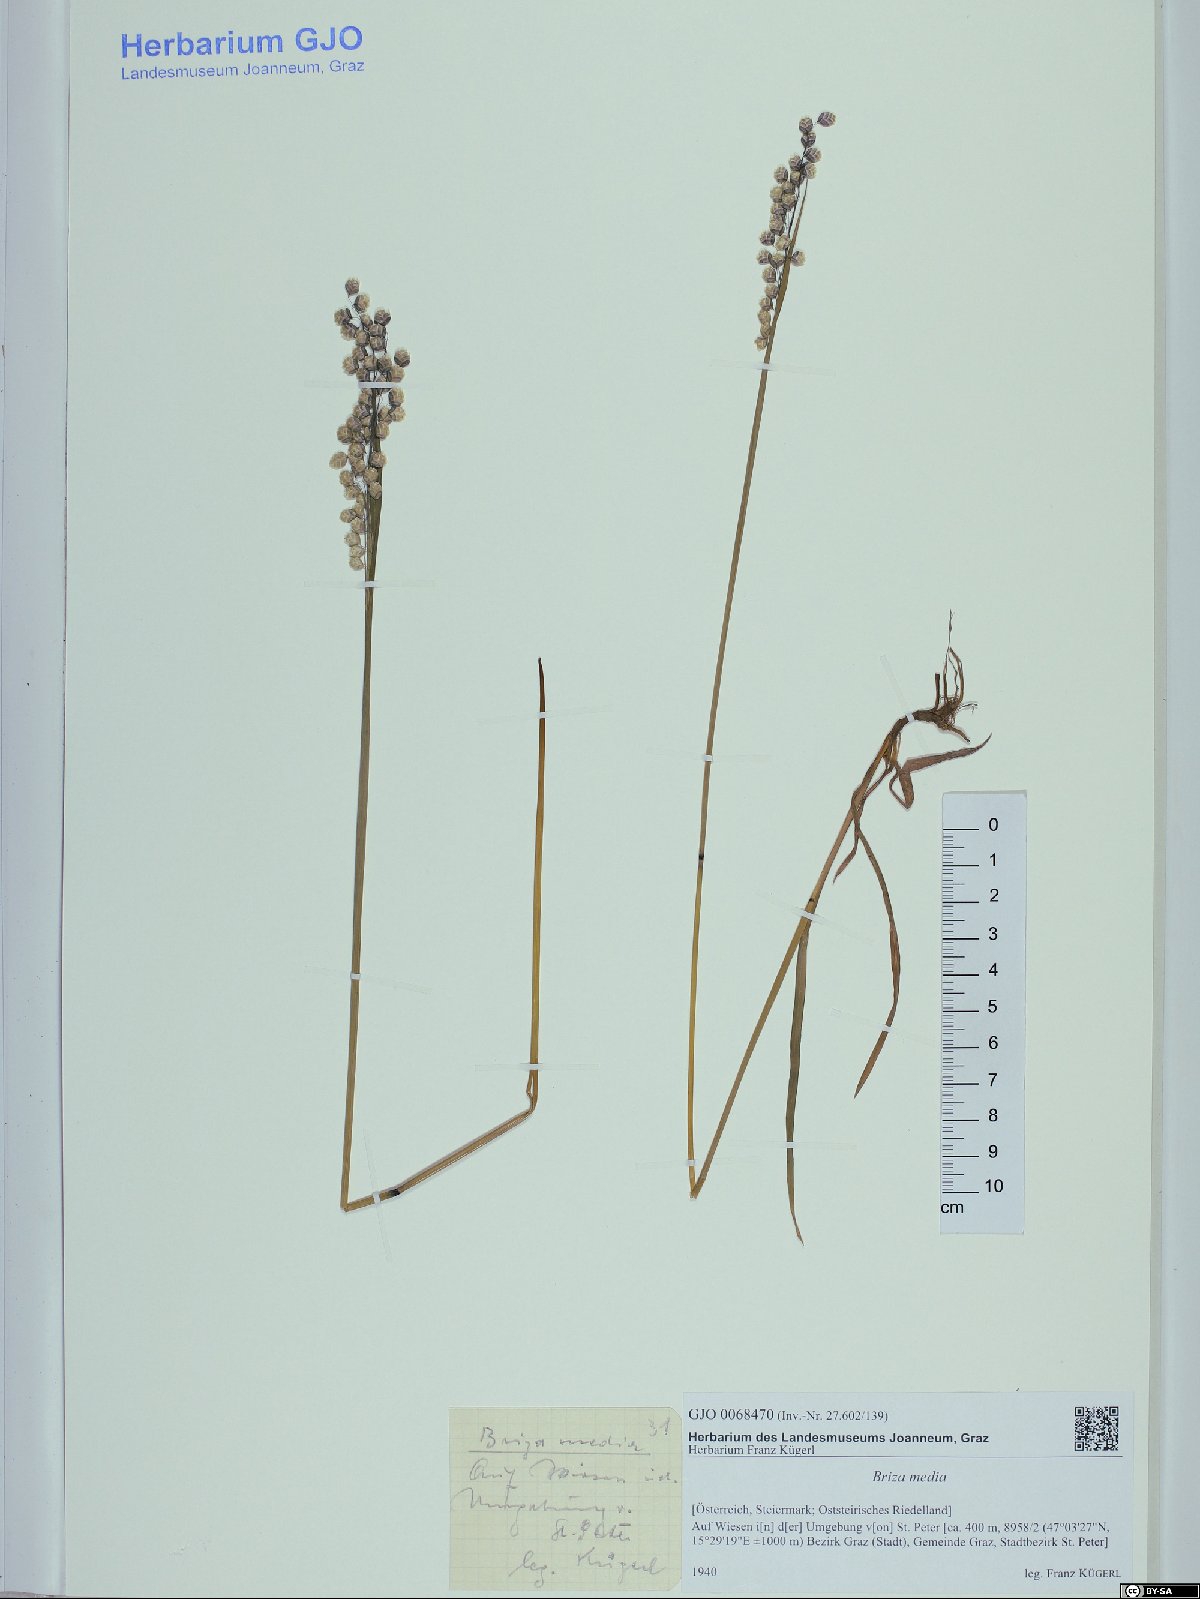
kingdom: Plantae
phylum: Tracheophyta
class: Liliopsida
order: Poales
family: Poaceae
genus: Briza
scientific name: Briza media
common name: Quaking grass
